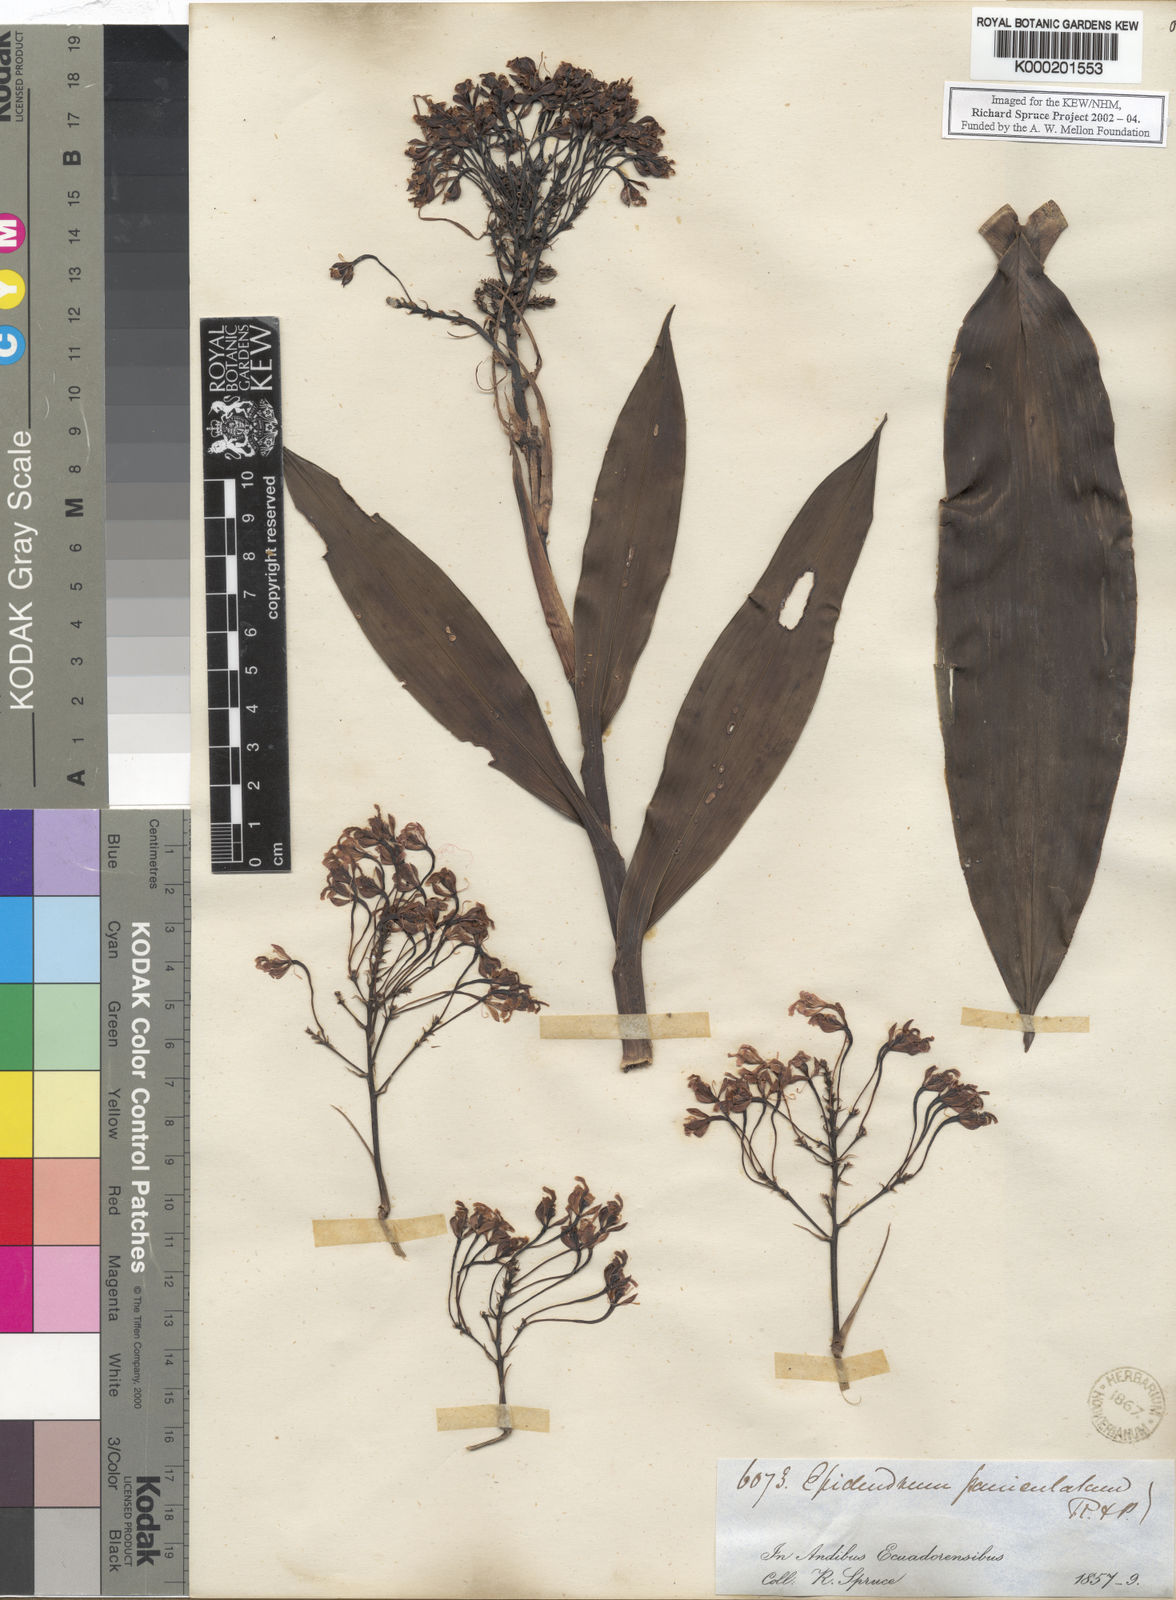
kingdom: Plantae
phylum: Tracheophyta
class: Liliopsida
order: Asparagales
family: Orchidaceae
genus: Epidendrum
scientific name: Epidendrum atacazoicum
